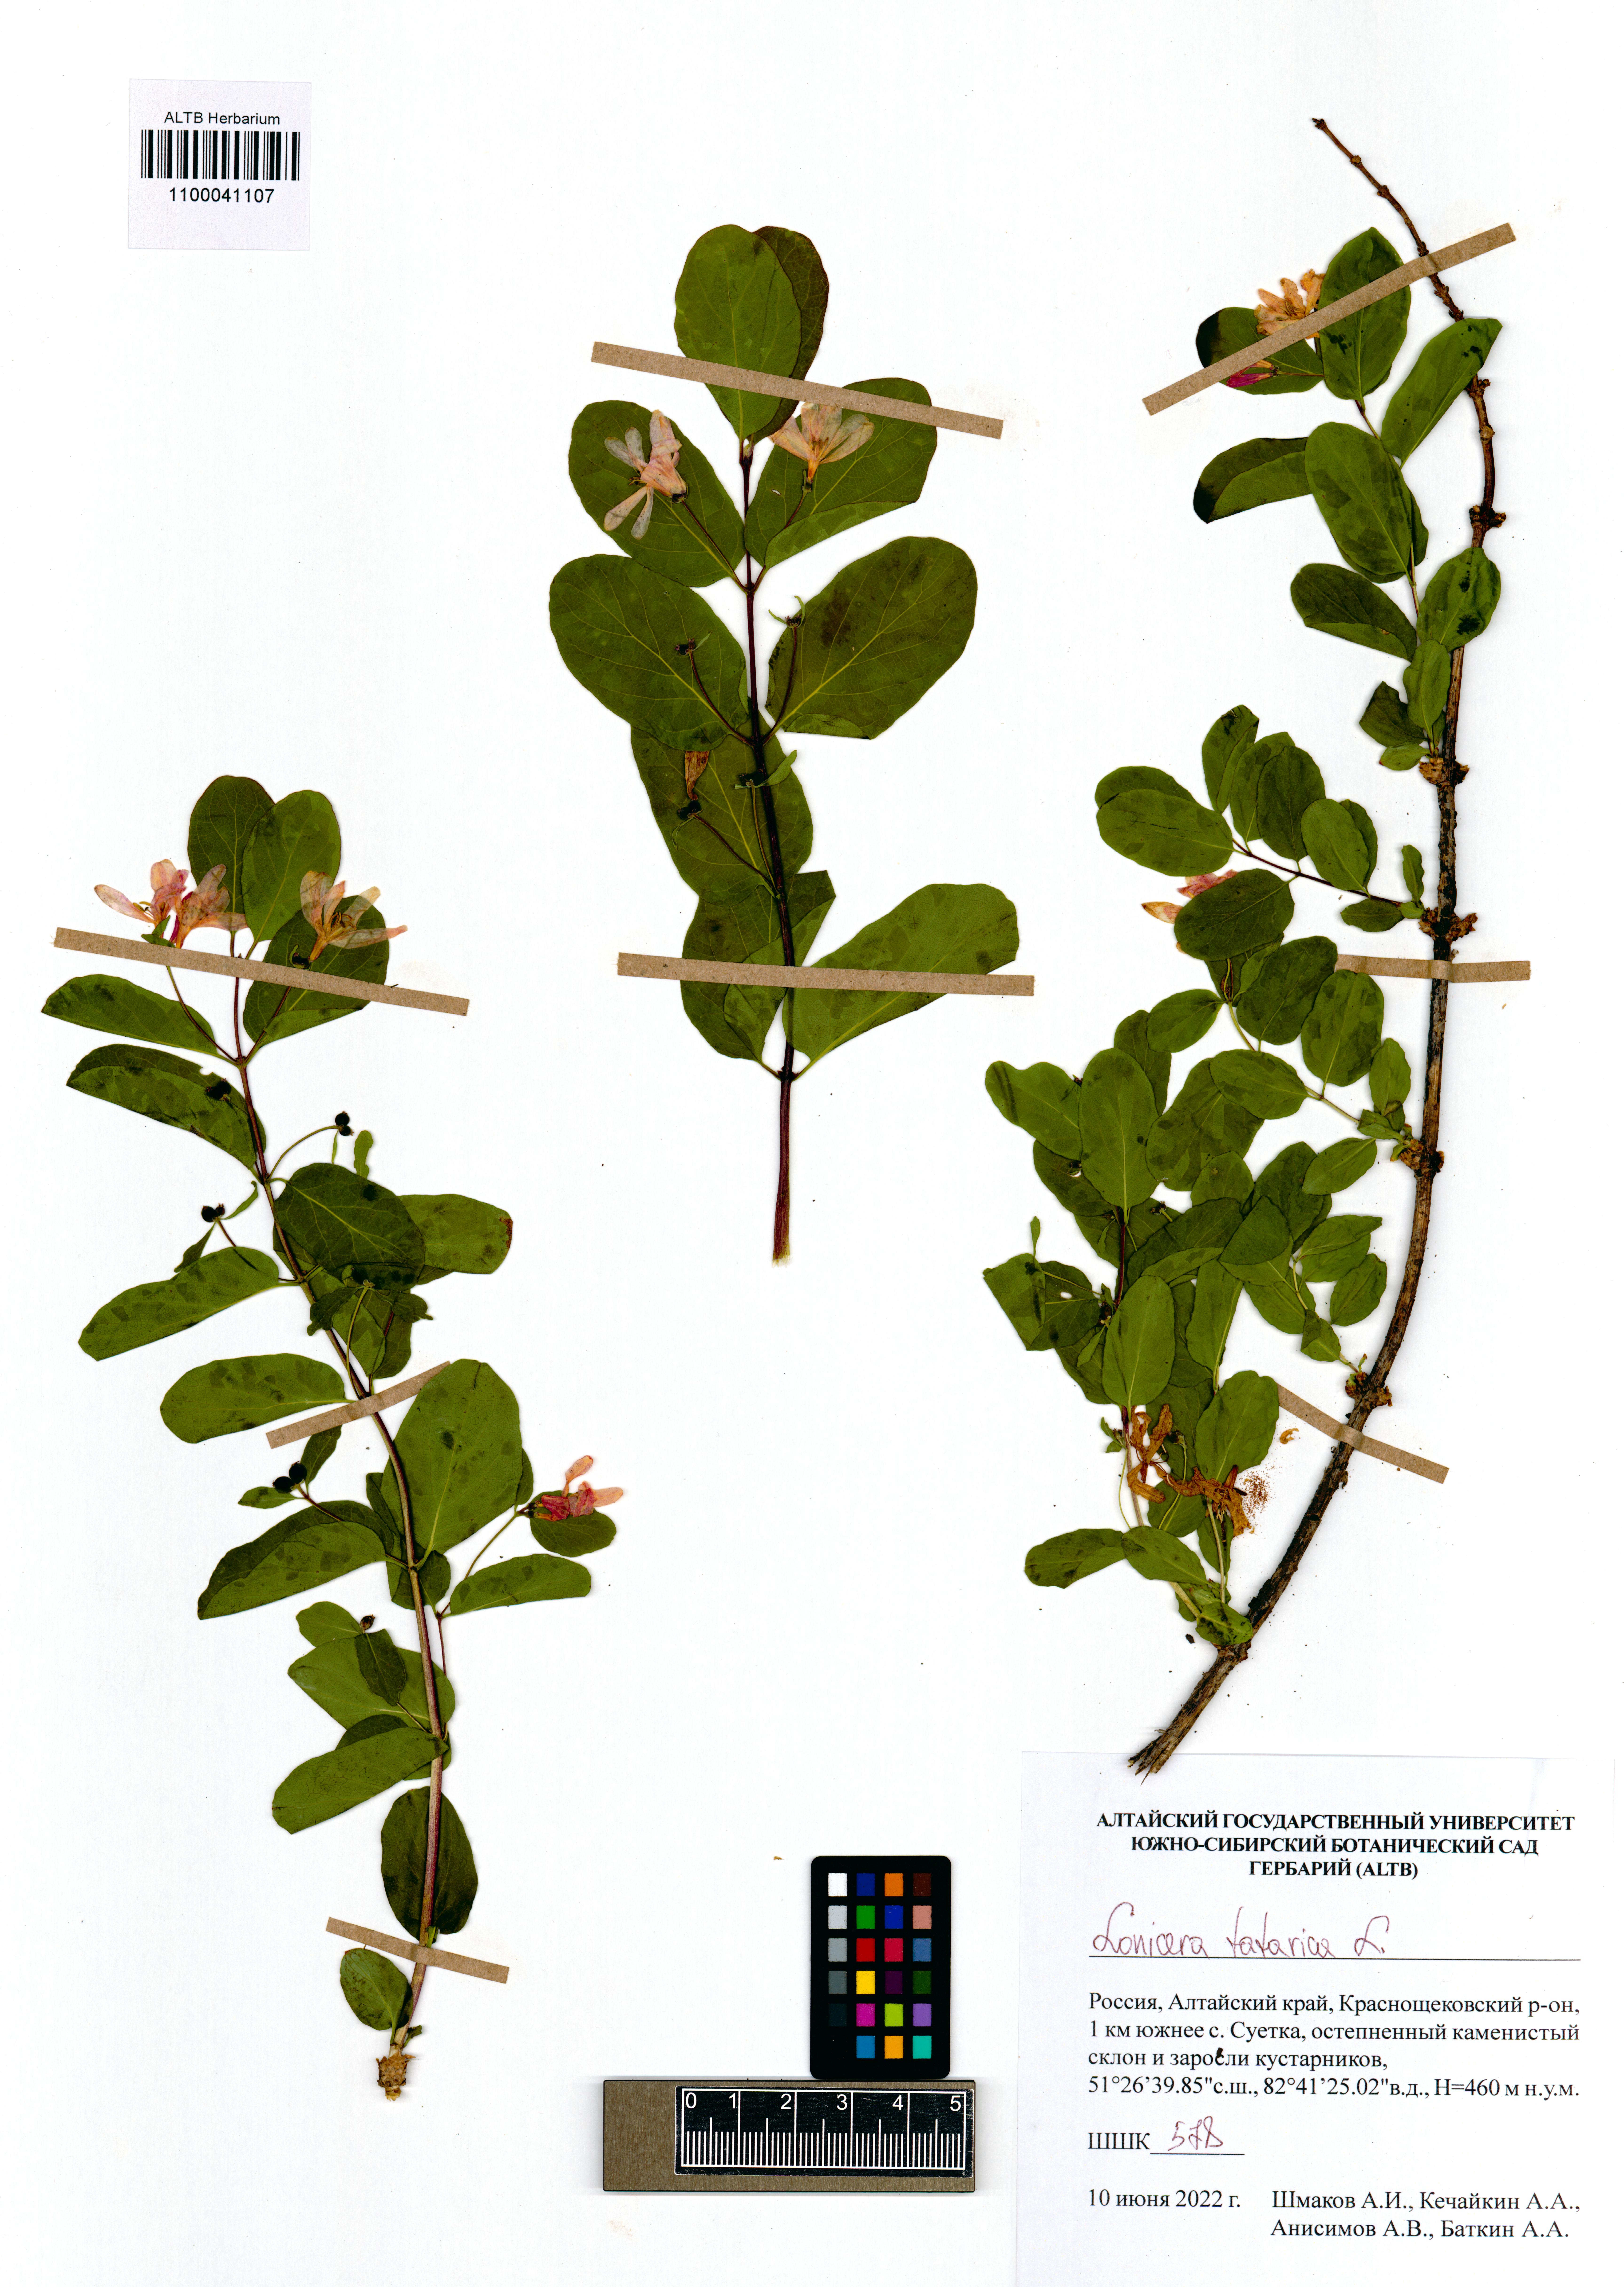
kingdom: Plantae
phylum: Tracheophyta
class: Magnoliopsida
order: Dipsacales
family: Caprifoliaceae
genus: Lonicera
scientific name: Lonicera tatarica
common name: Tatarian honeysuckle
